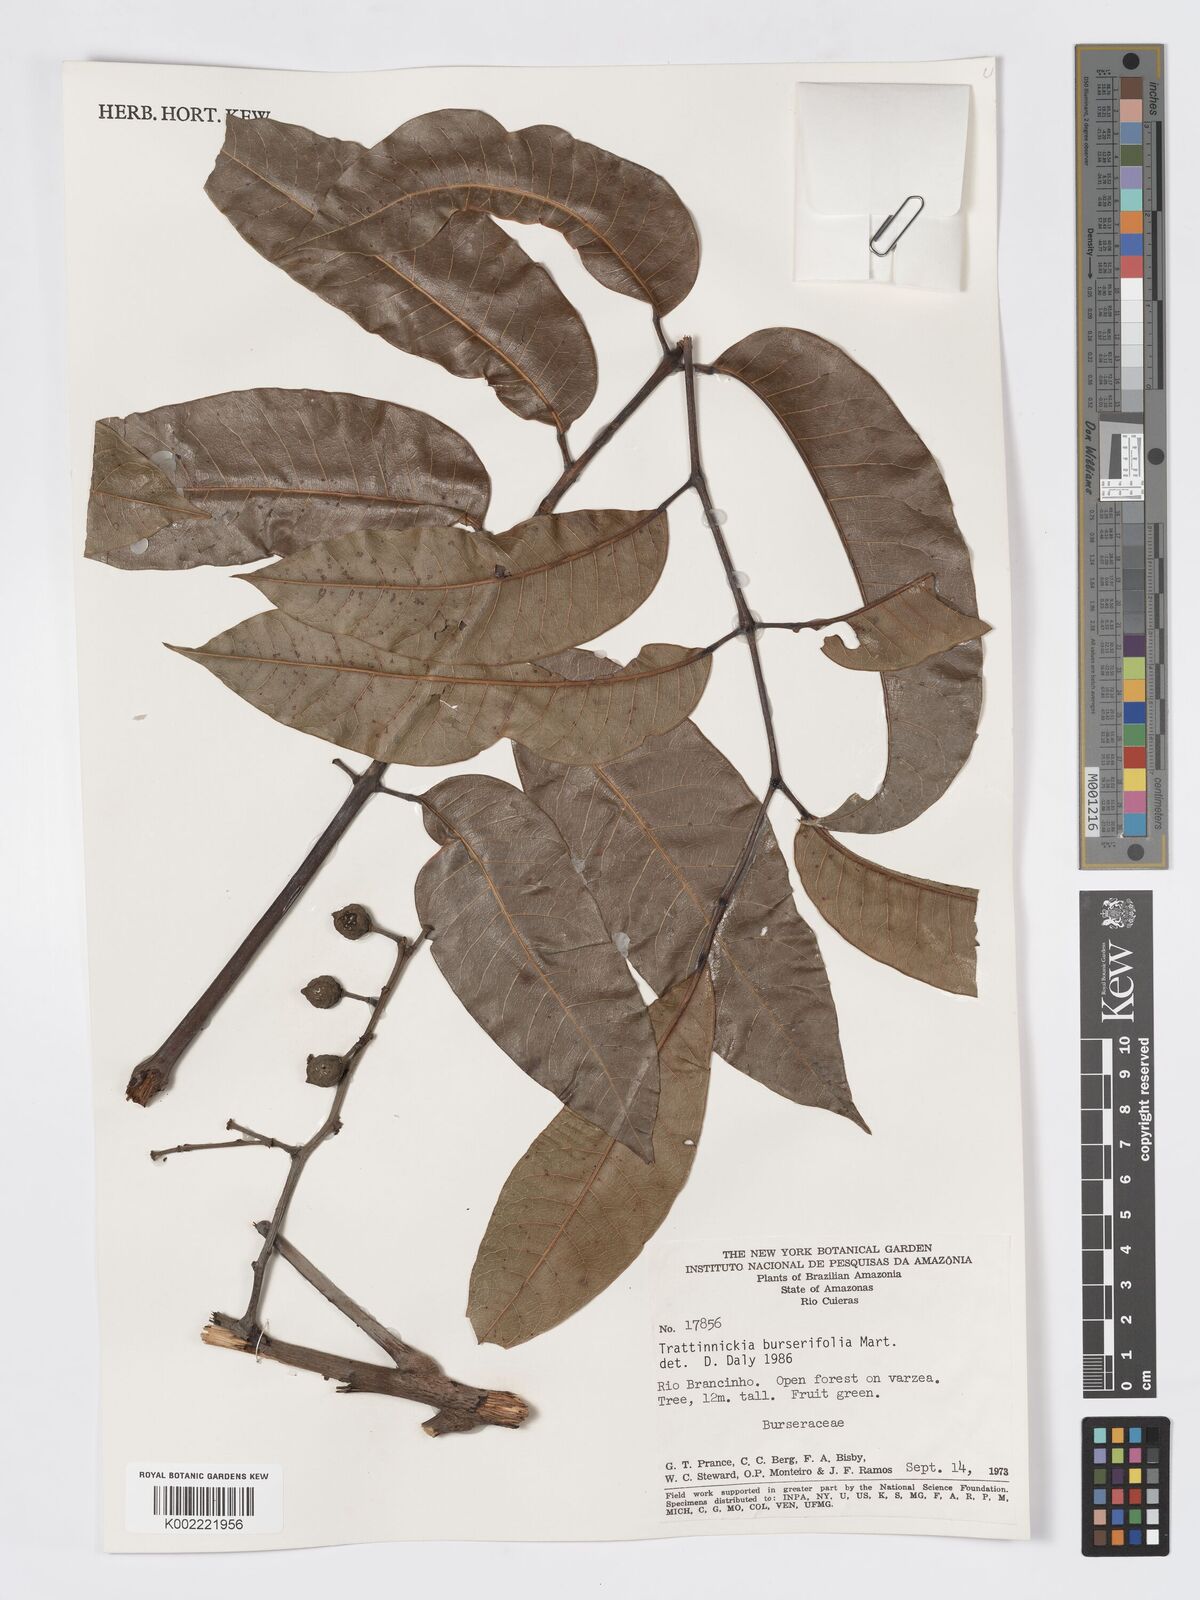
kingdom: Plantae
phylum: Tracheophyta
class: Magnoliopsida
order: Sapindales
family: Burseraceae
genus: Trattinnickia
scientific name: Trattinnickia burserifolia
